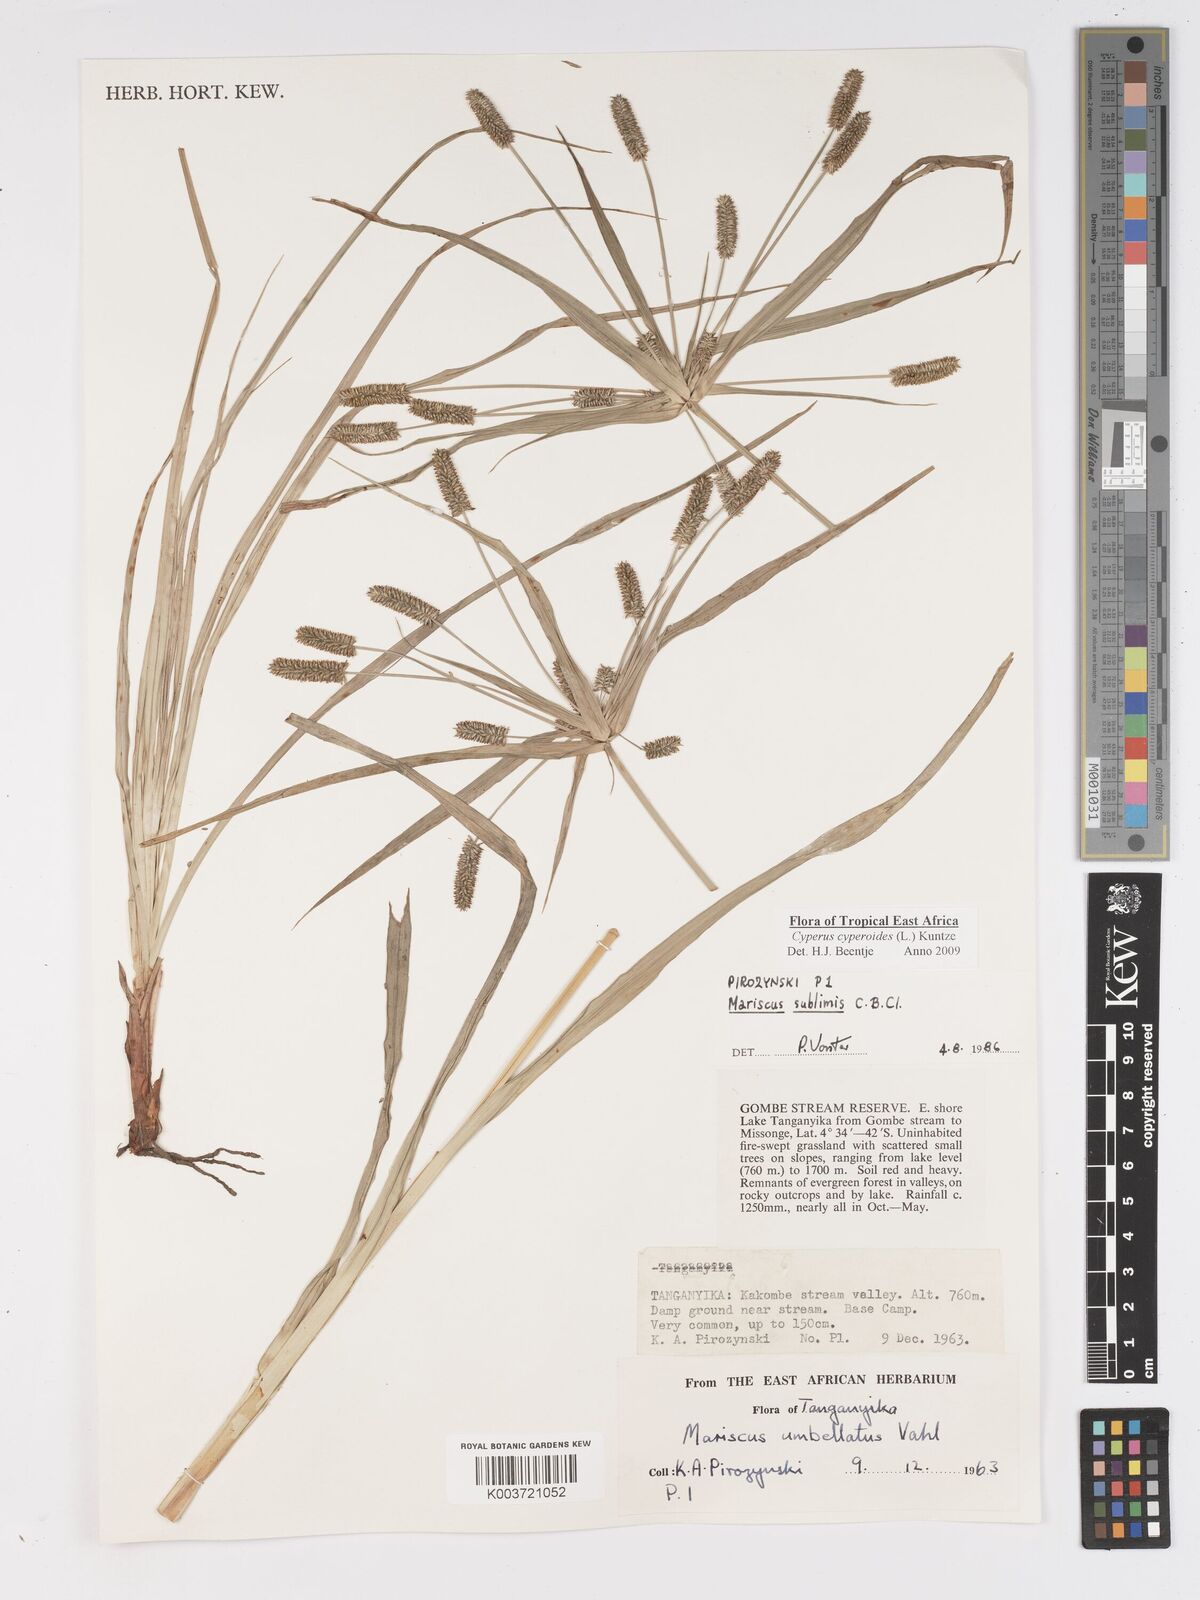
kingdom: Plantae
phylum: Tracheophyta
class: Liliopsida
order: Poales
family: Cyperaceae
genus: Cyperus
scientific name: Cyperus cyperoides
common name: Pacific island flat sedge
